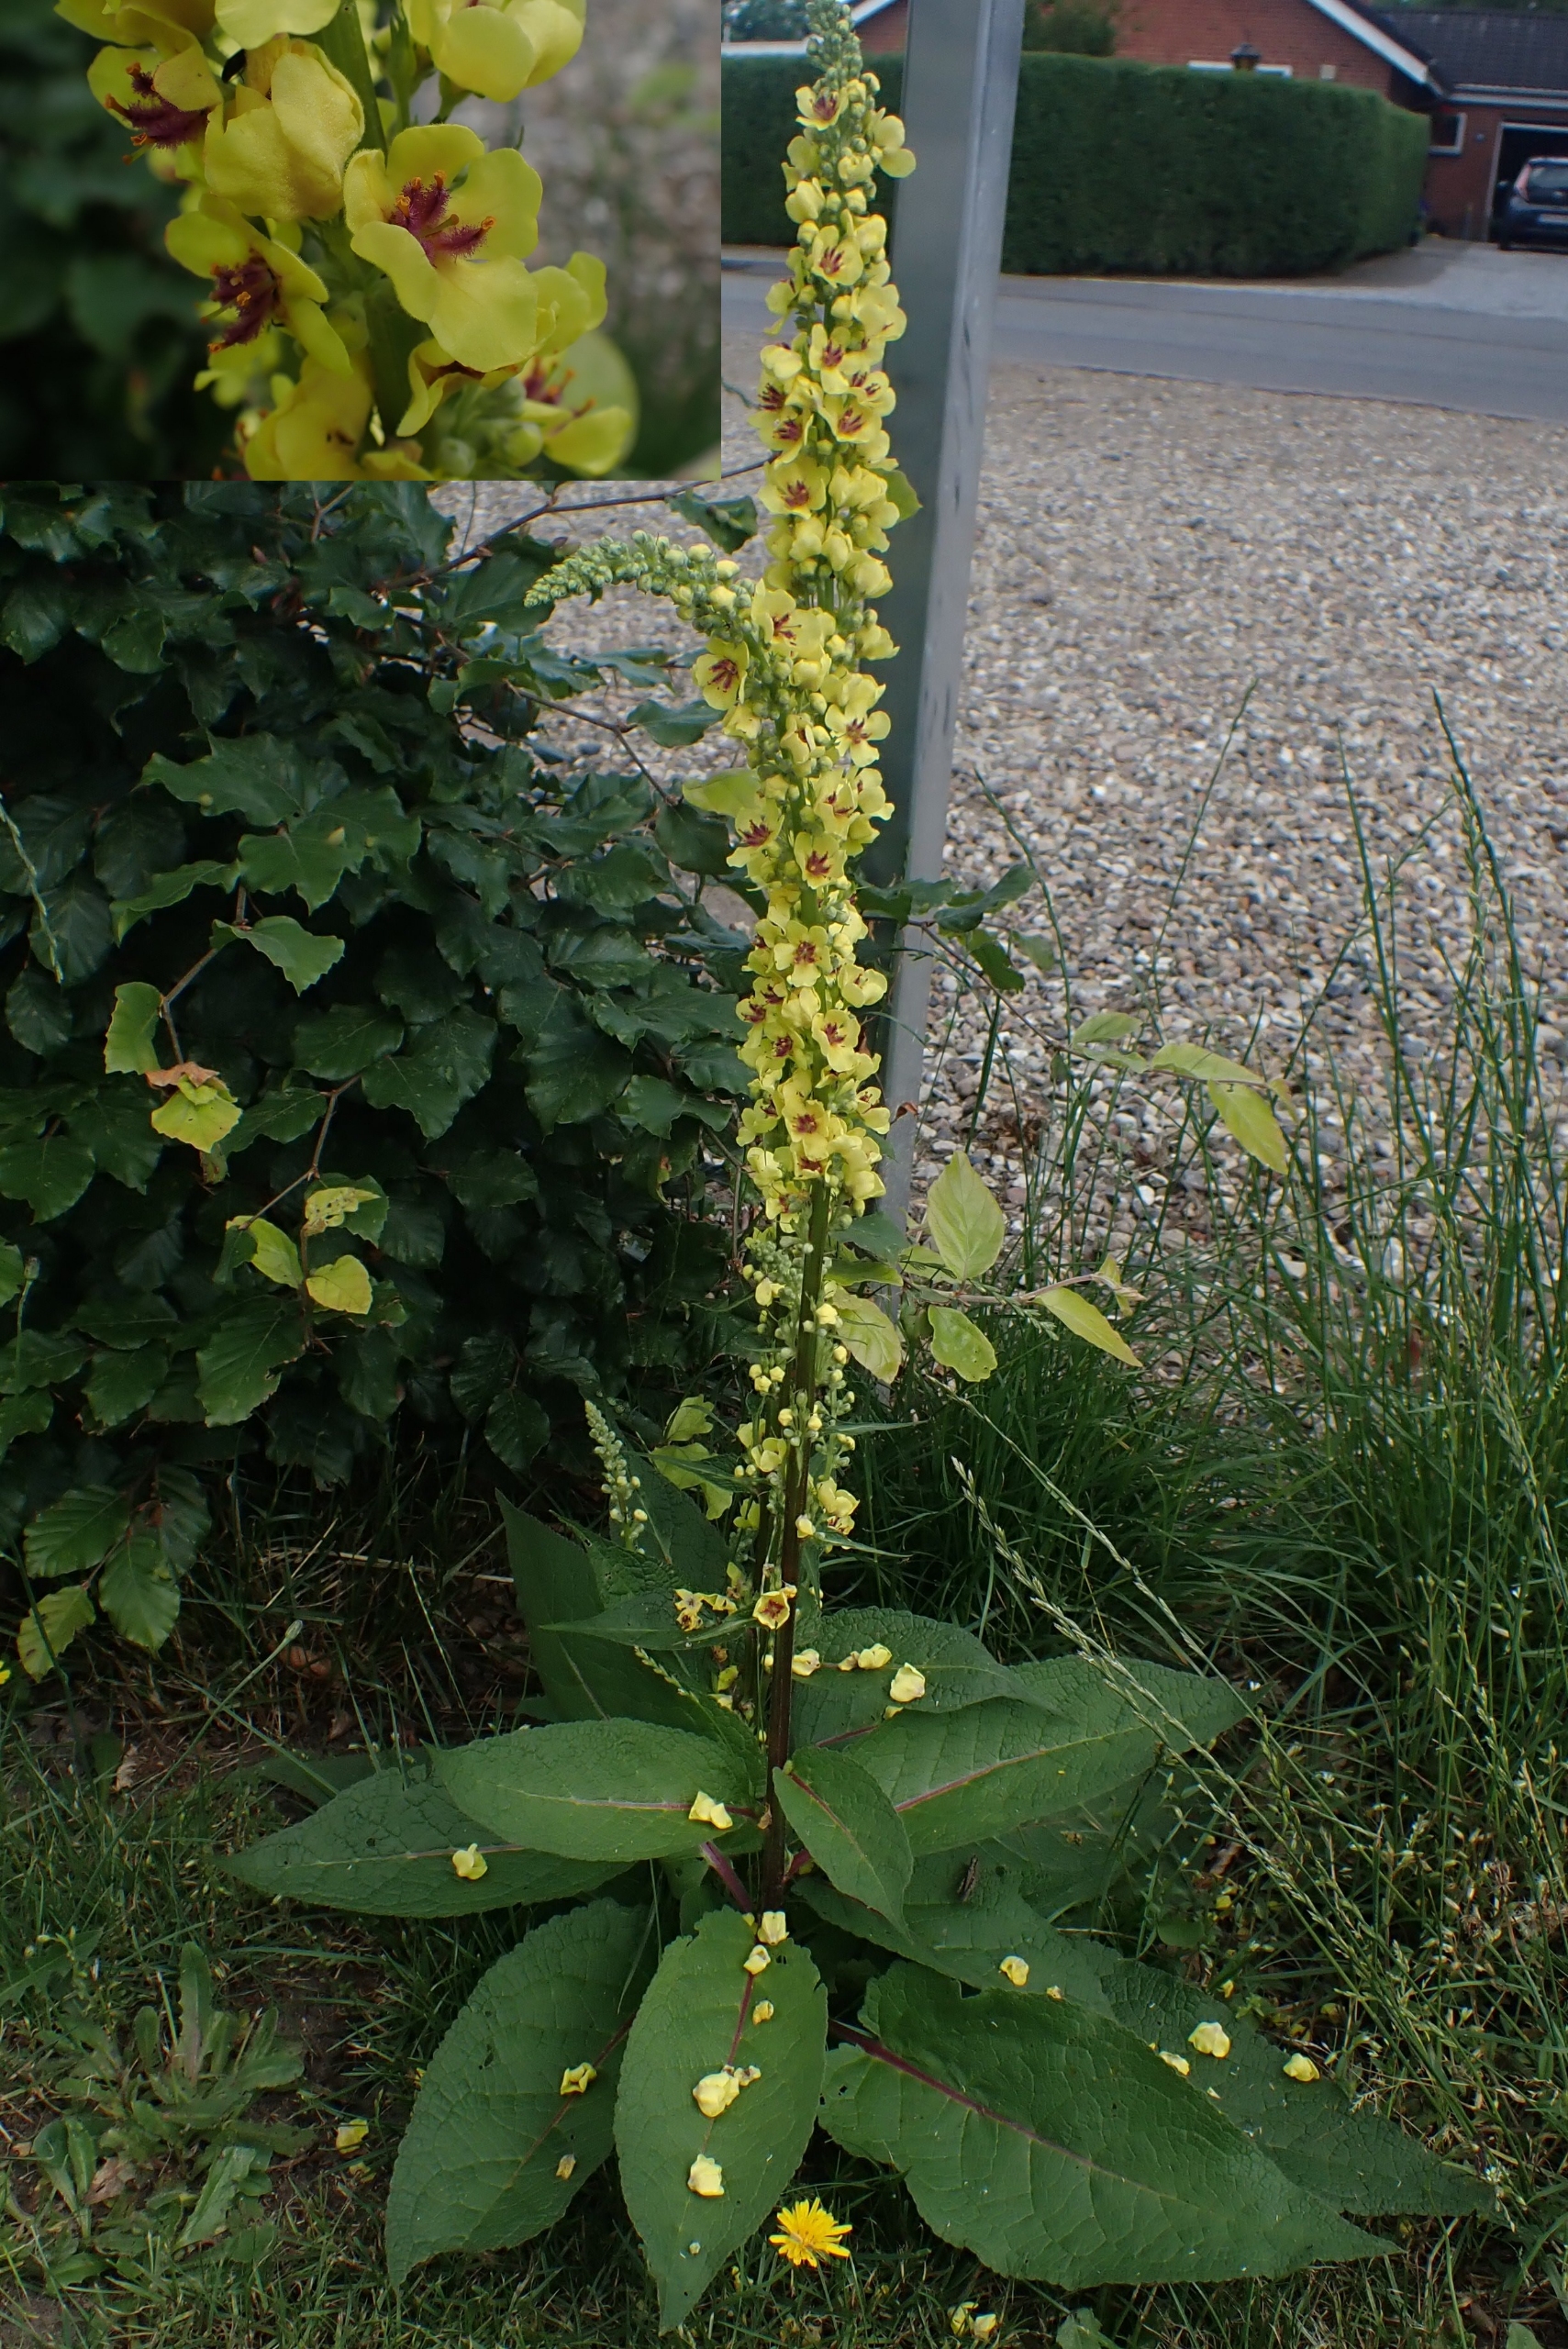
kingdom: Plantae
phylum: Tracheophyta
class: Magnoliopsida
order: Lamiales
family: Scrophulariaceae
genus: Verbascum
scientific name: Verbascum nigrum
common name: Mørk kongelys
